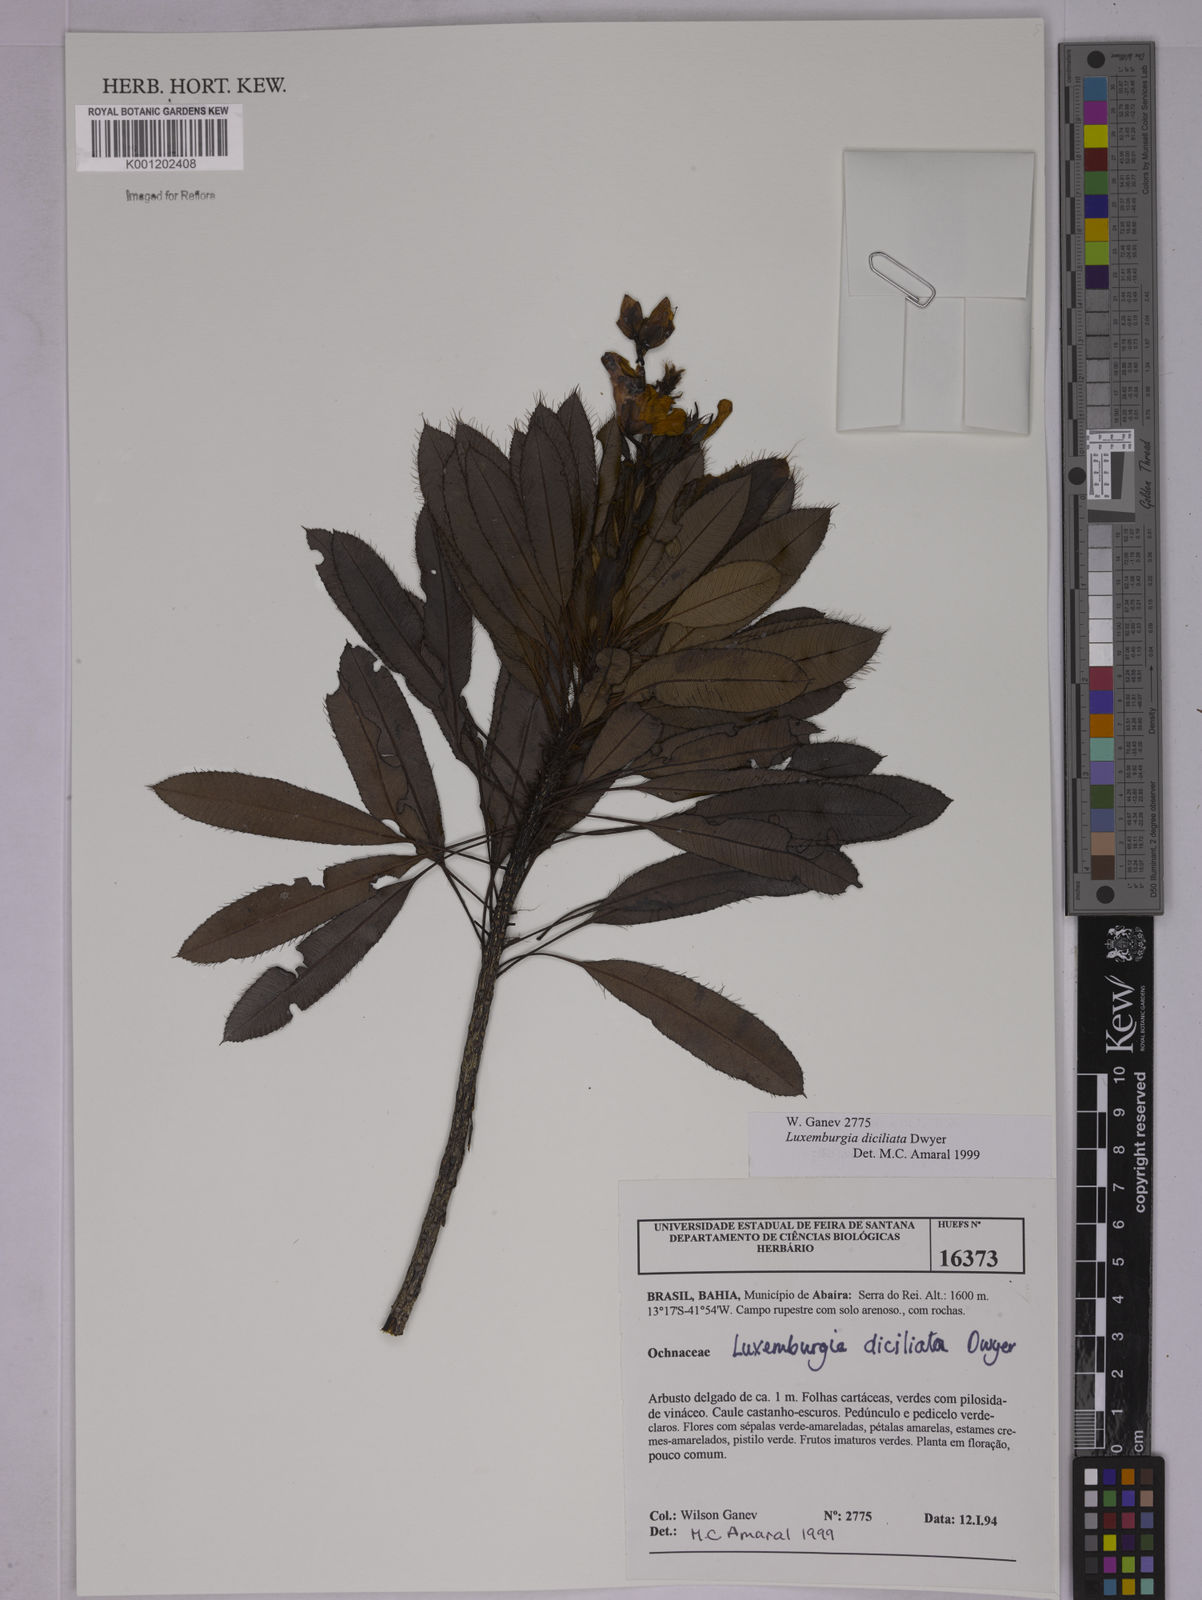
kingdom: Plantae
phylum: Tracheophyta
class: Magnoliopsida
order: Malpighiales
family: Ochnaceae
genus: Luxemburgia
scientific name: Luxemburgia diciliata
